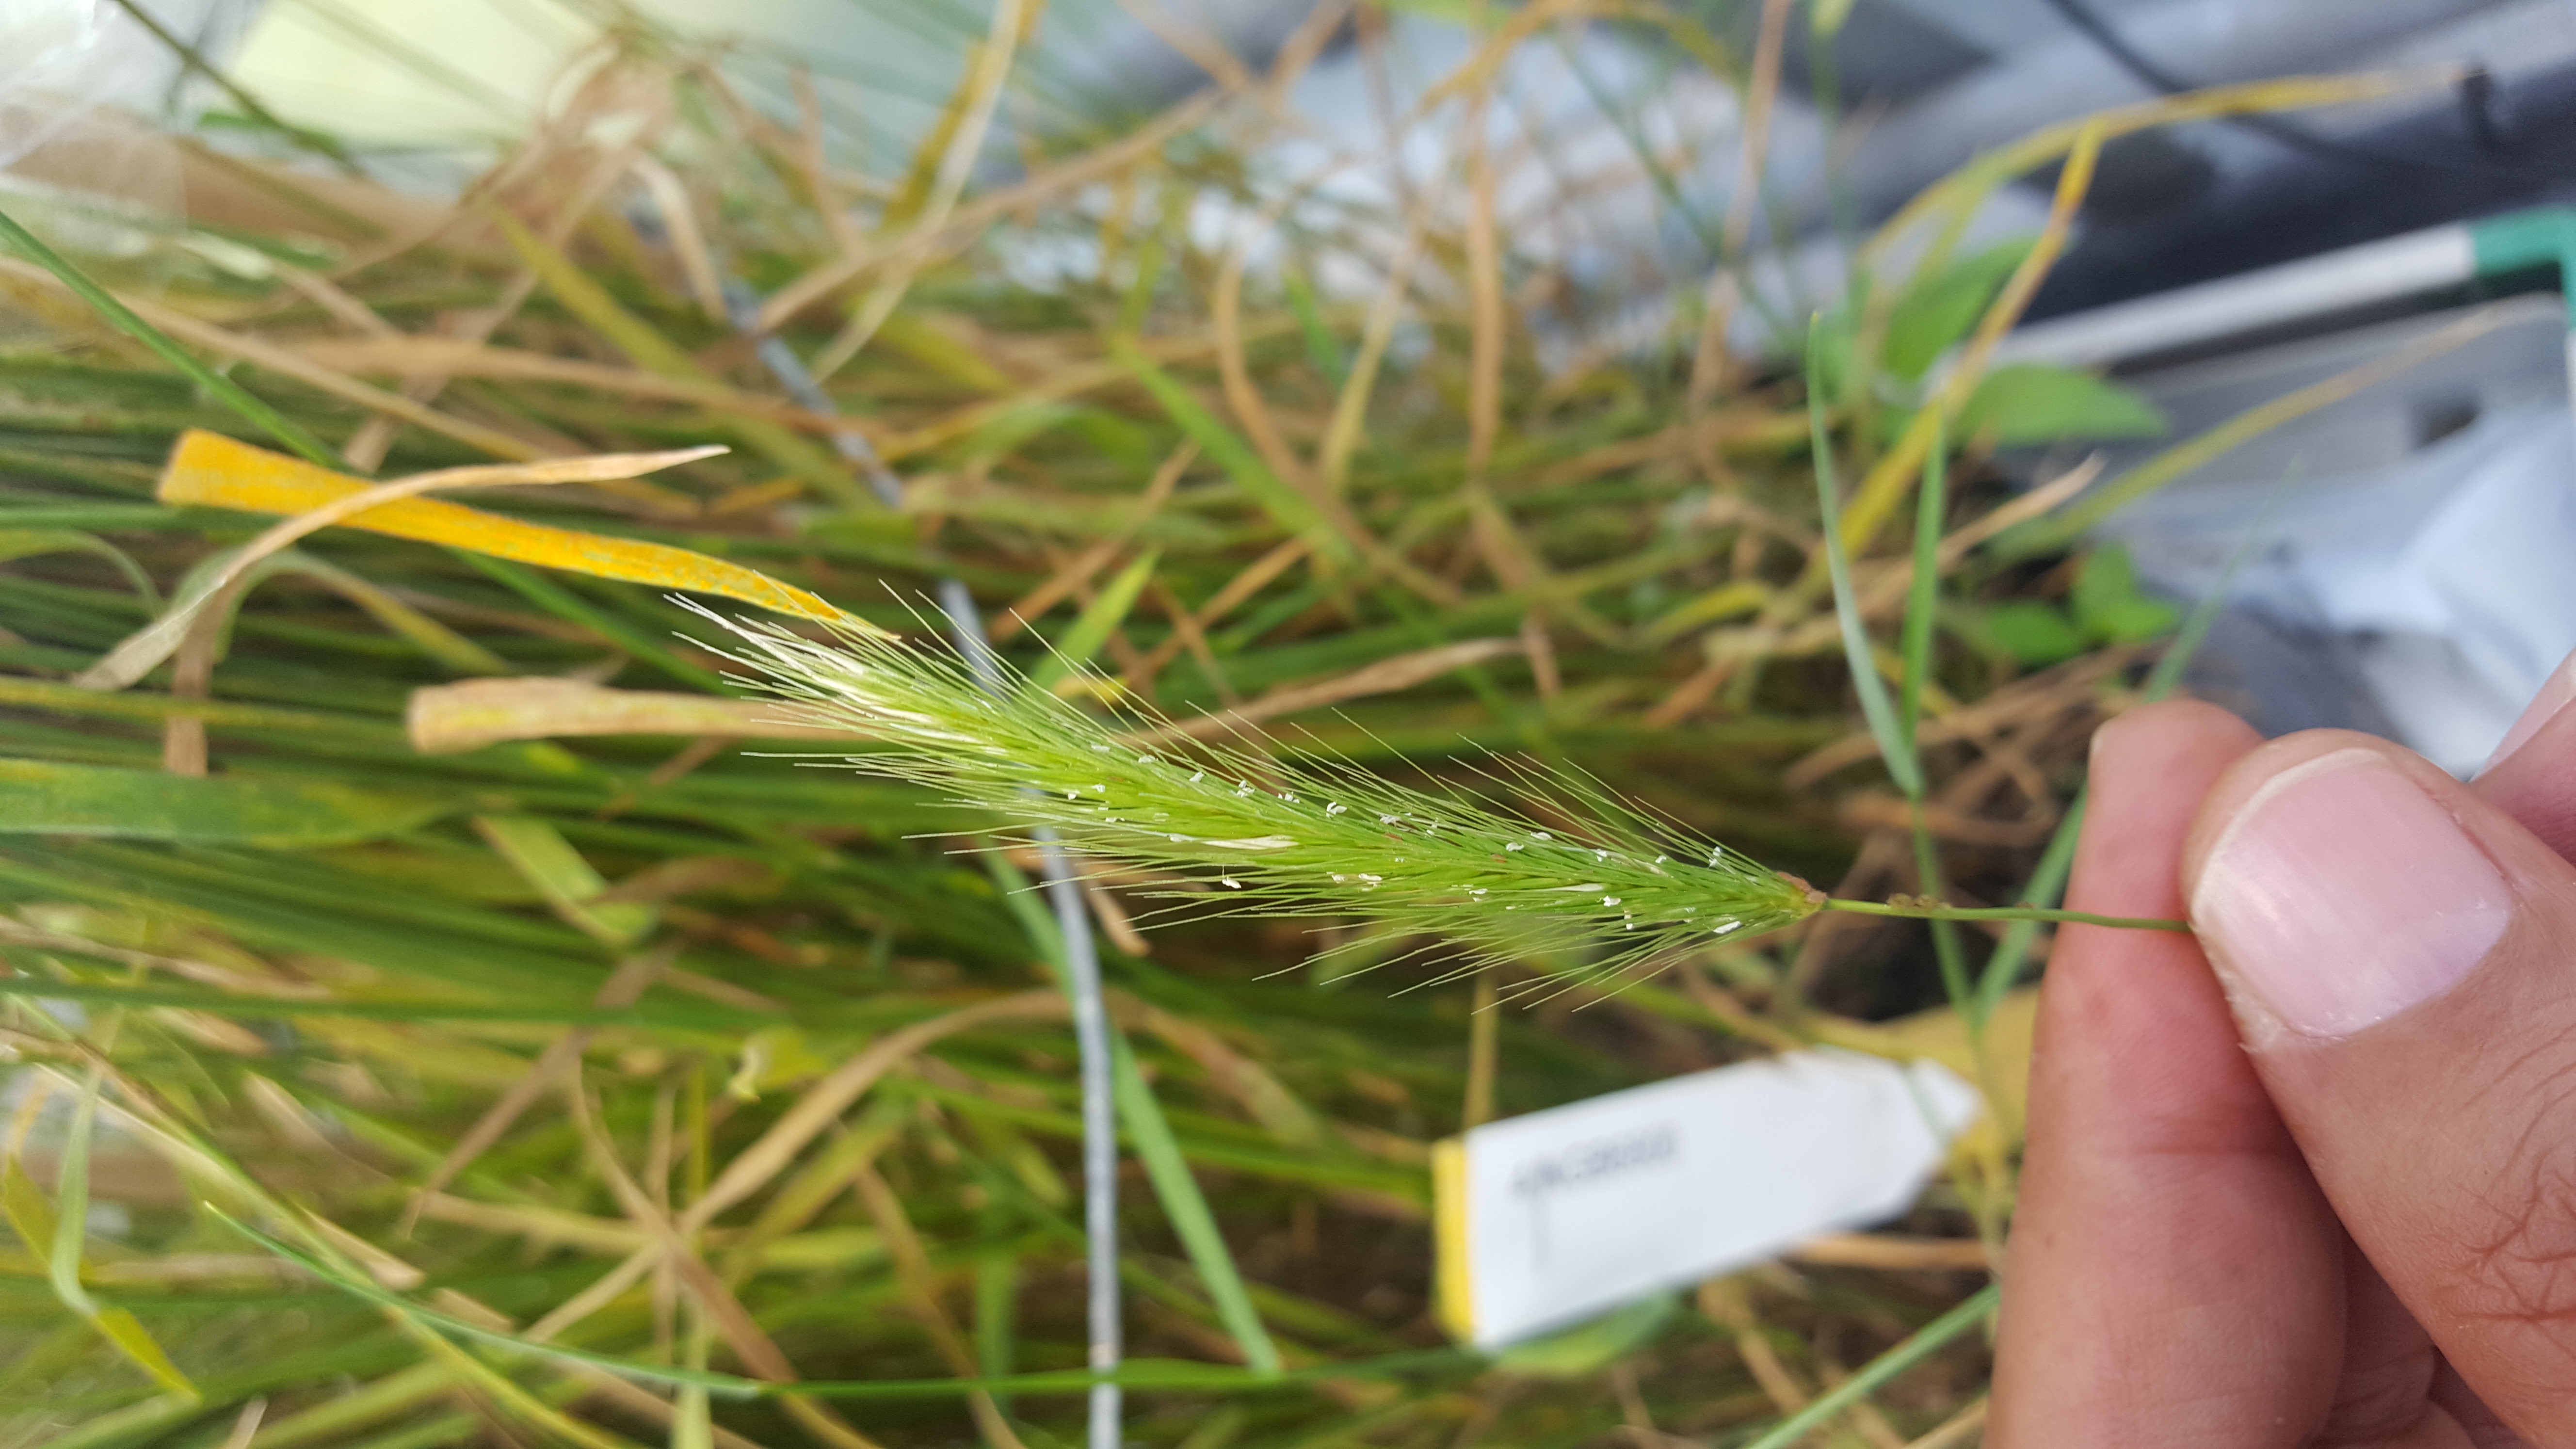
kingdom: Plantae
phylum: Tracheophyta
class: Liliopsida
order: Poales
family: Poaceae
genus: Hordeum
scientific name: Hordeum californicum
